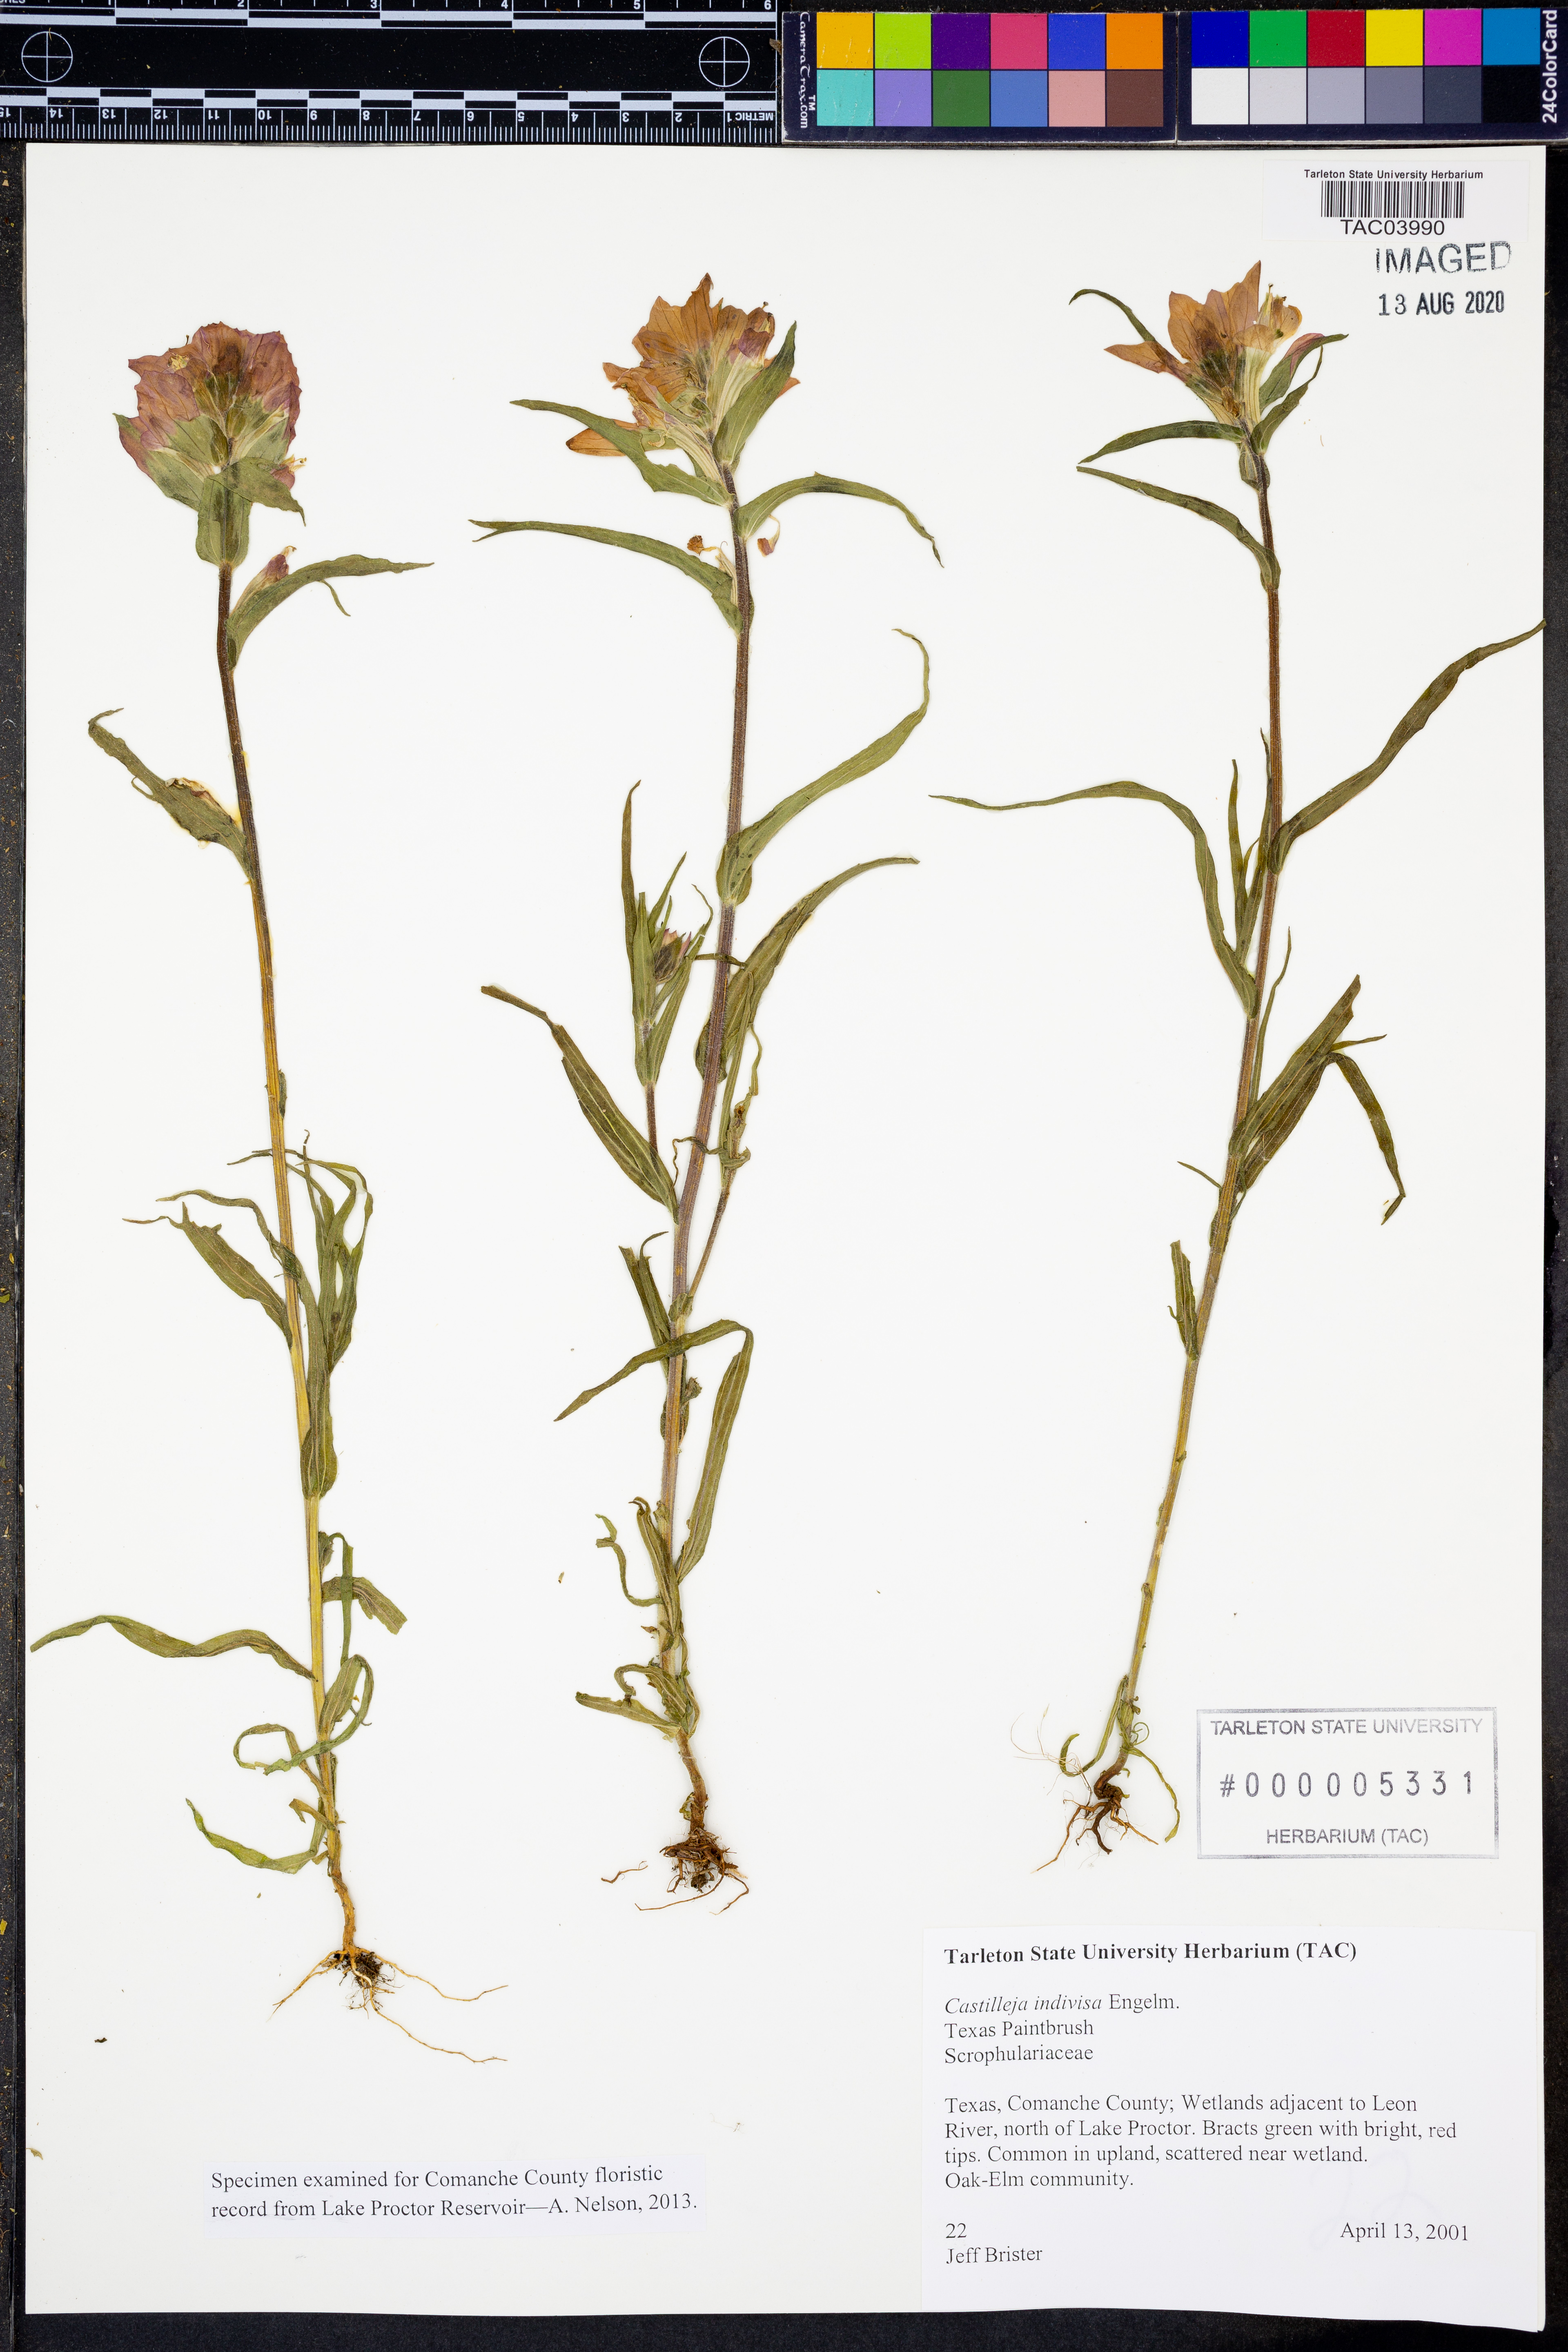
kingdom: Plantae
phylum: Tracheophyta
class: Magnoliopsida
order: Lamiales
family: Orobanchaceae
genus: Castilleja
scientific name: Castilleja indivisa
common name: Texas paintbrush
